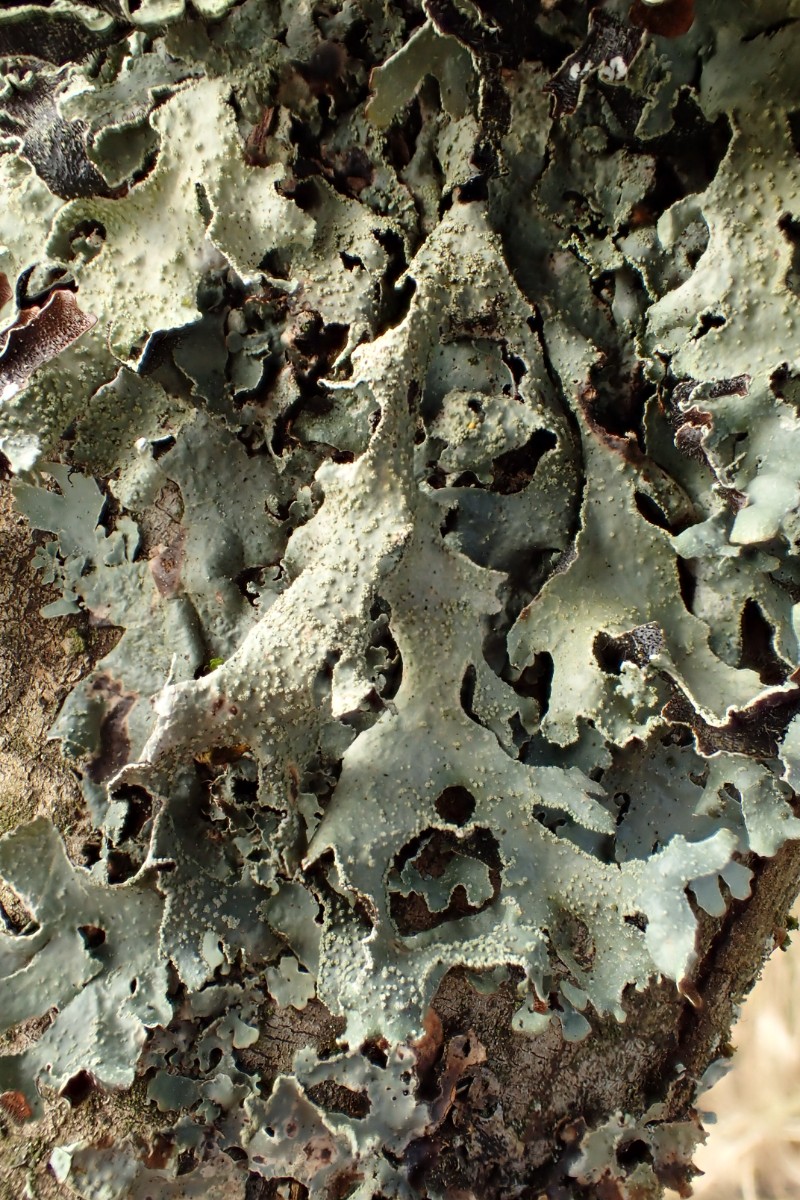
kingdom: Fungi
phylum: Ascomycota
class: Lecanoromycetes
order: Lecanorales
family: Parmeliaceae
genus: Parmelia
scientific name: Parmelia submontana
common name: langlobet skållav
